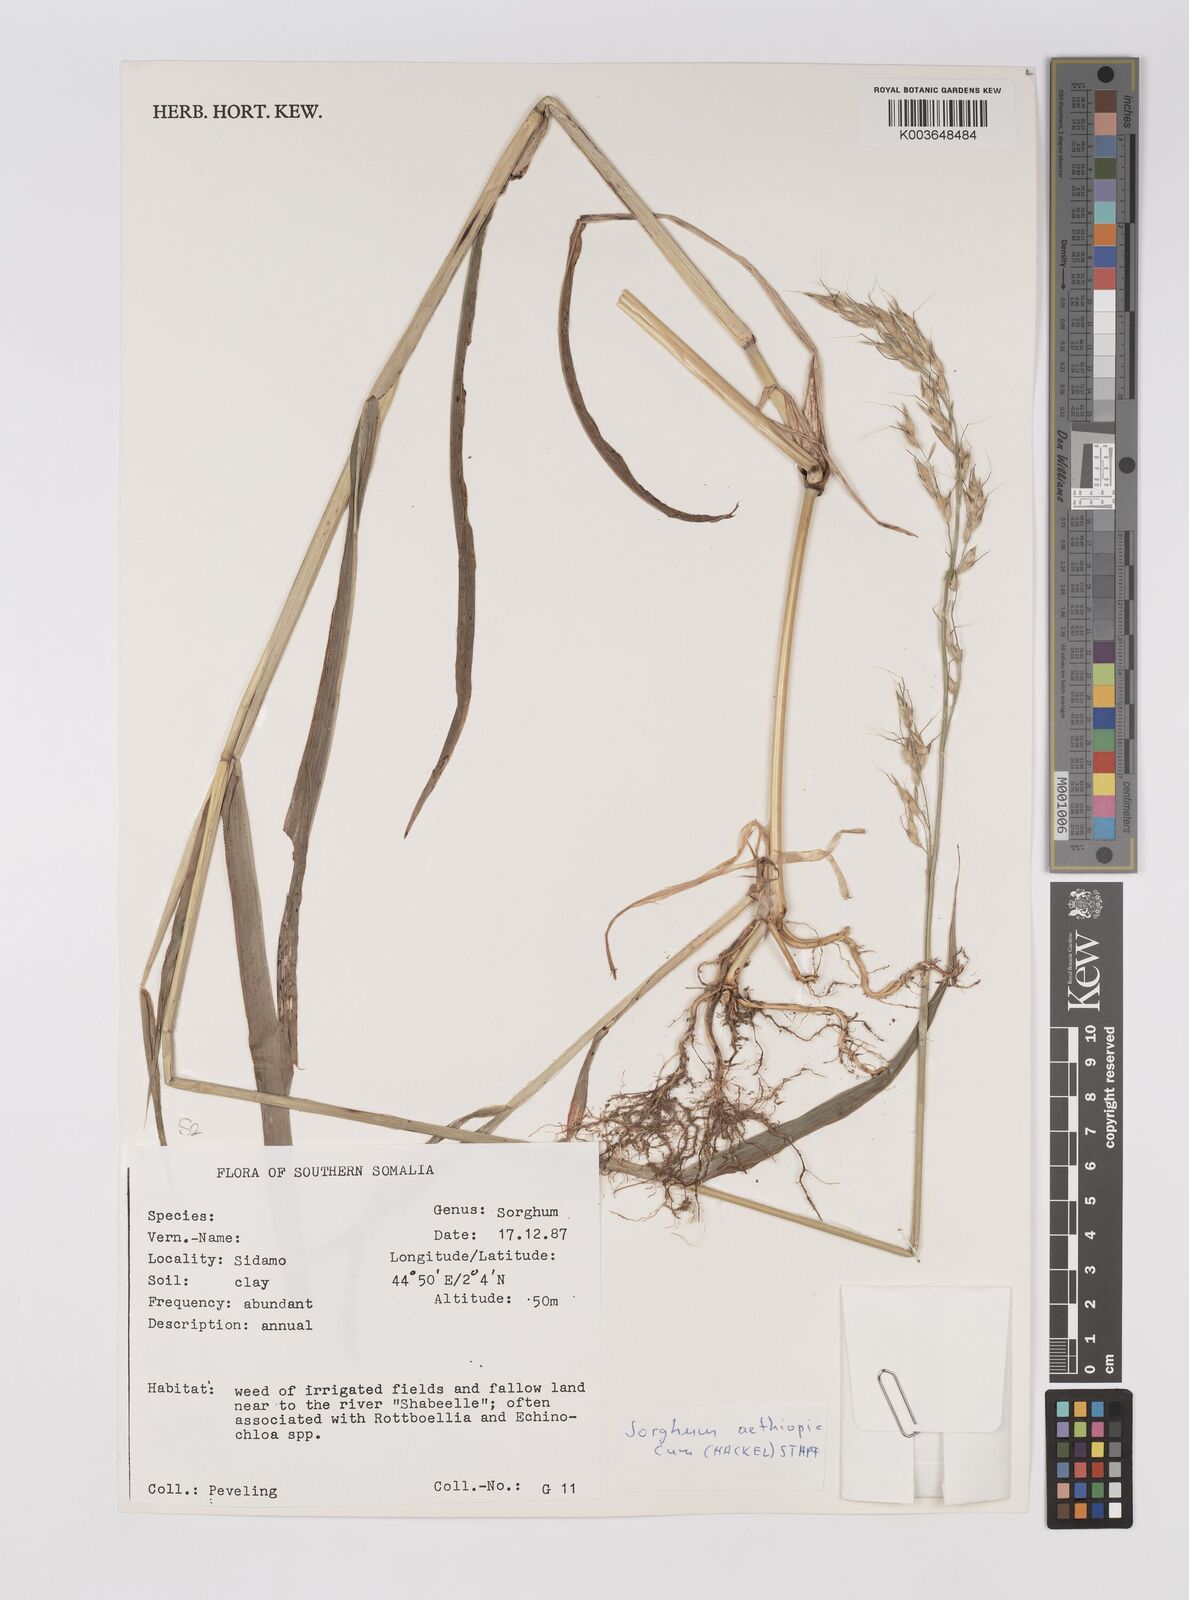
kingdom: Plantae
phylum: Tracheophyta
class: Liliopsida
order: Poales
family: Poaceae
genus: Sorghum
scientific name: Sorghum arundinaceum
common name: Sorghum
